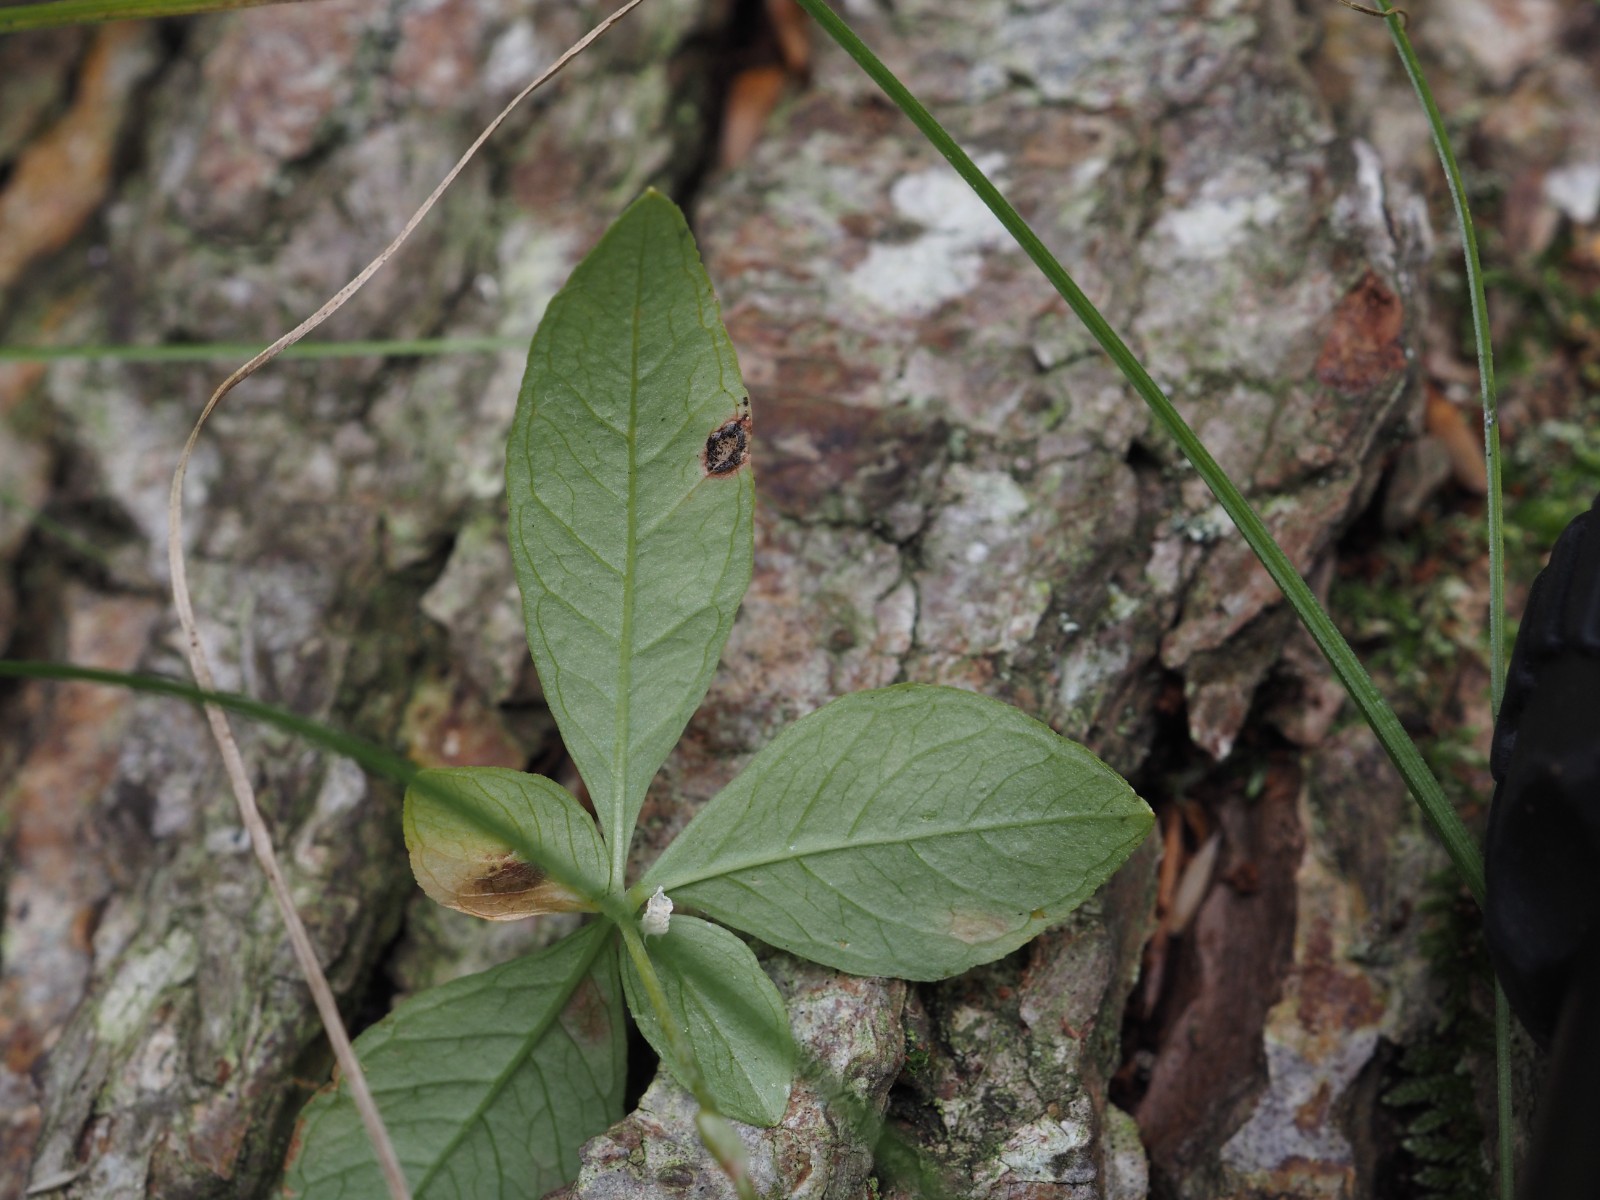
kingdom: Fungi
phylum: Basidiomycota
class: Ustilaginomycetes
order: Urocystidales
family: Urocystidaceae
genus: Urocystis
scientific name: Urocystis trientalis
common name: Chickweed wintergreen smut
